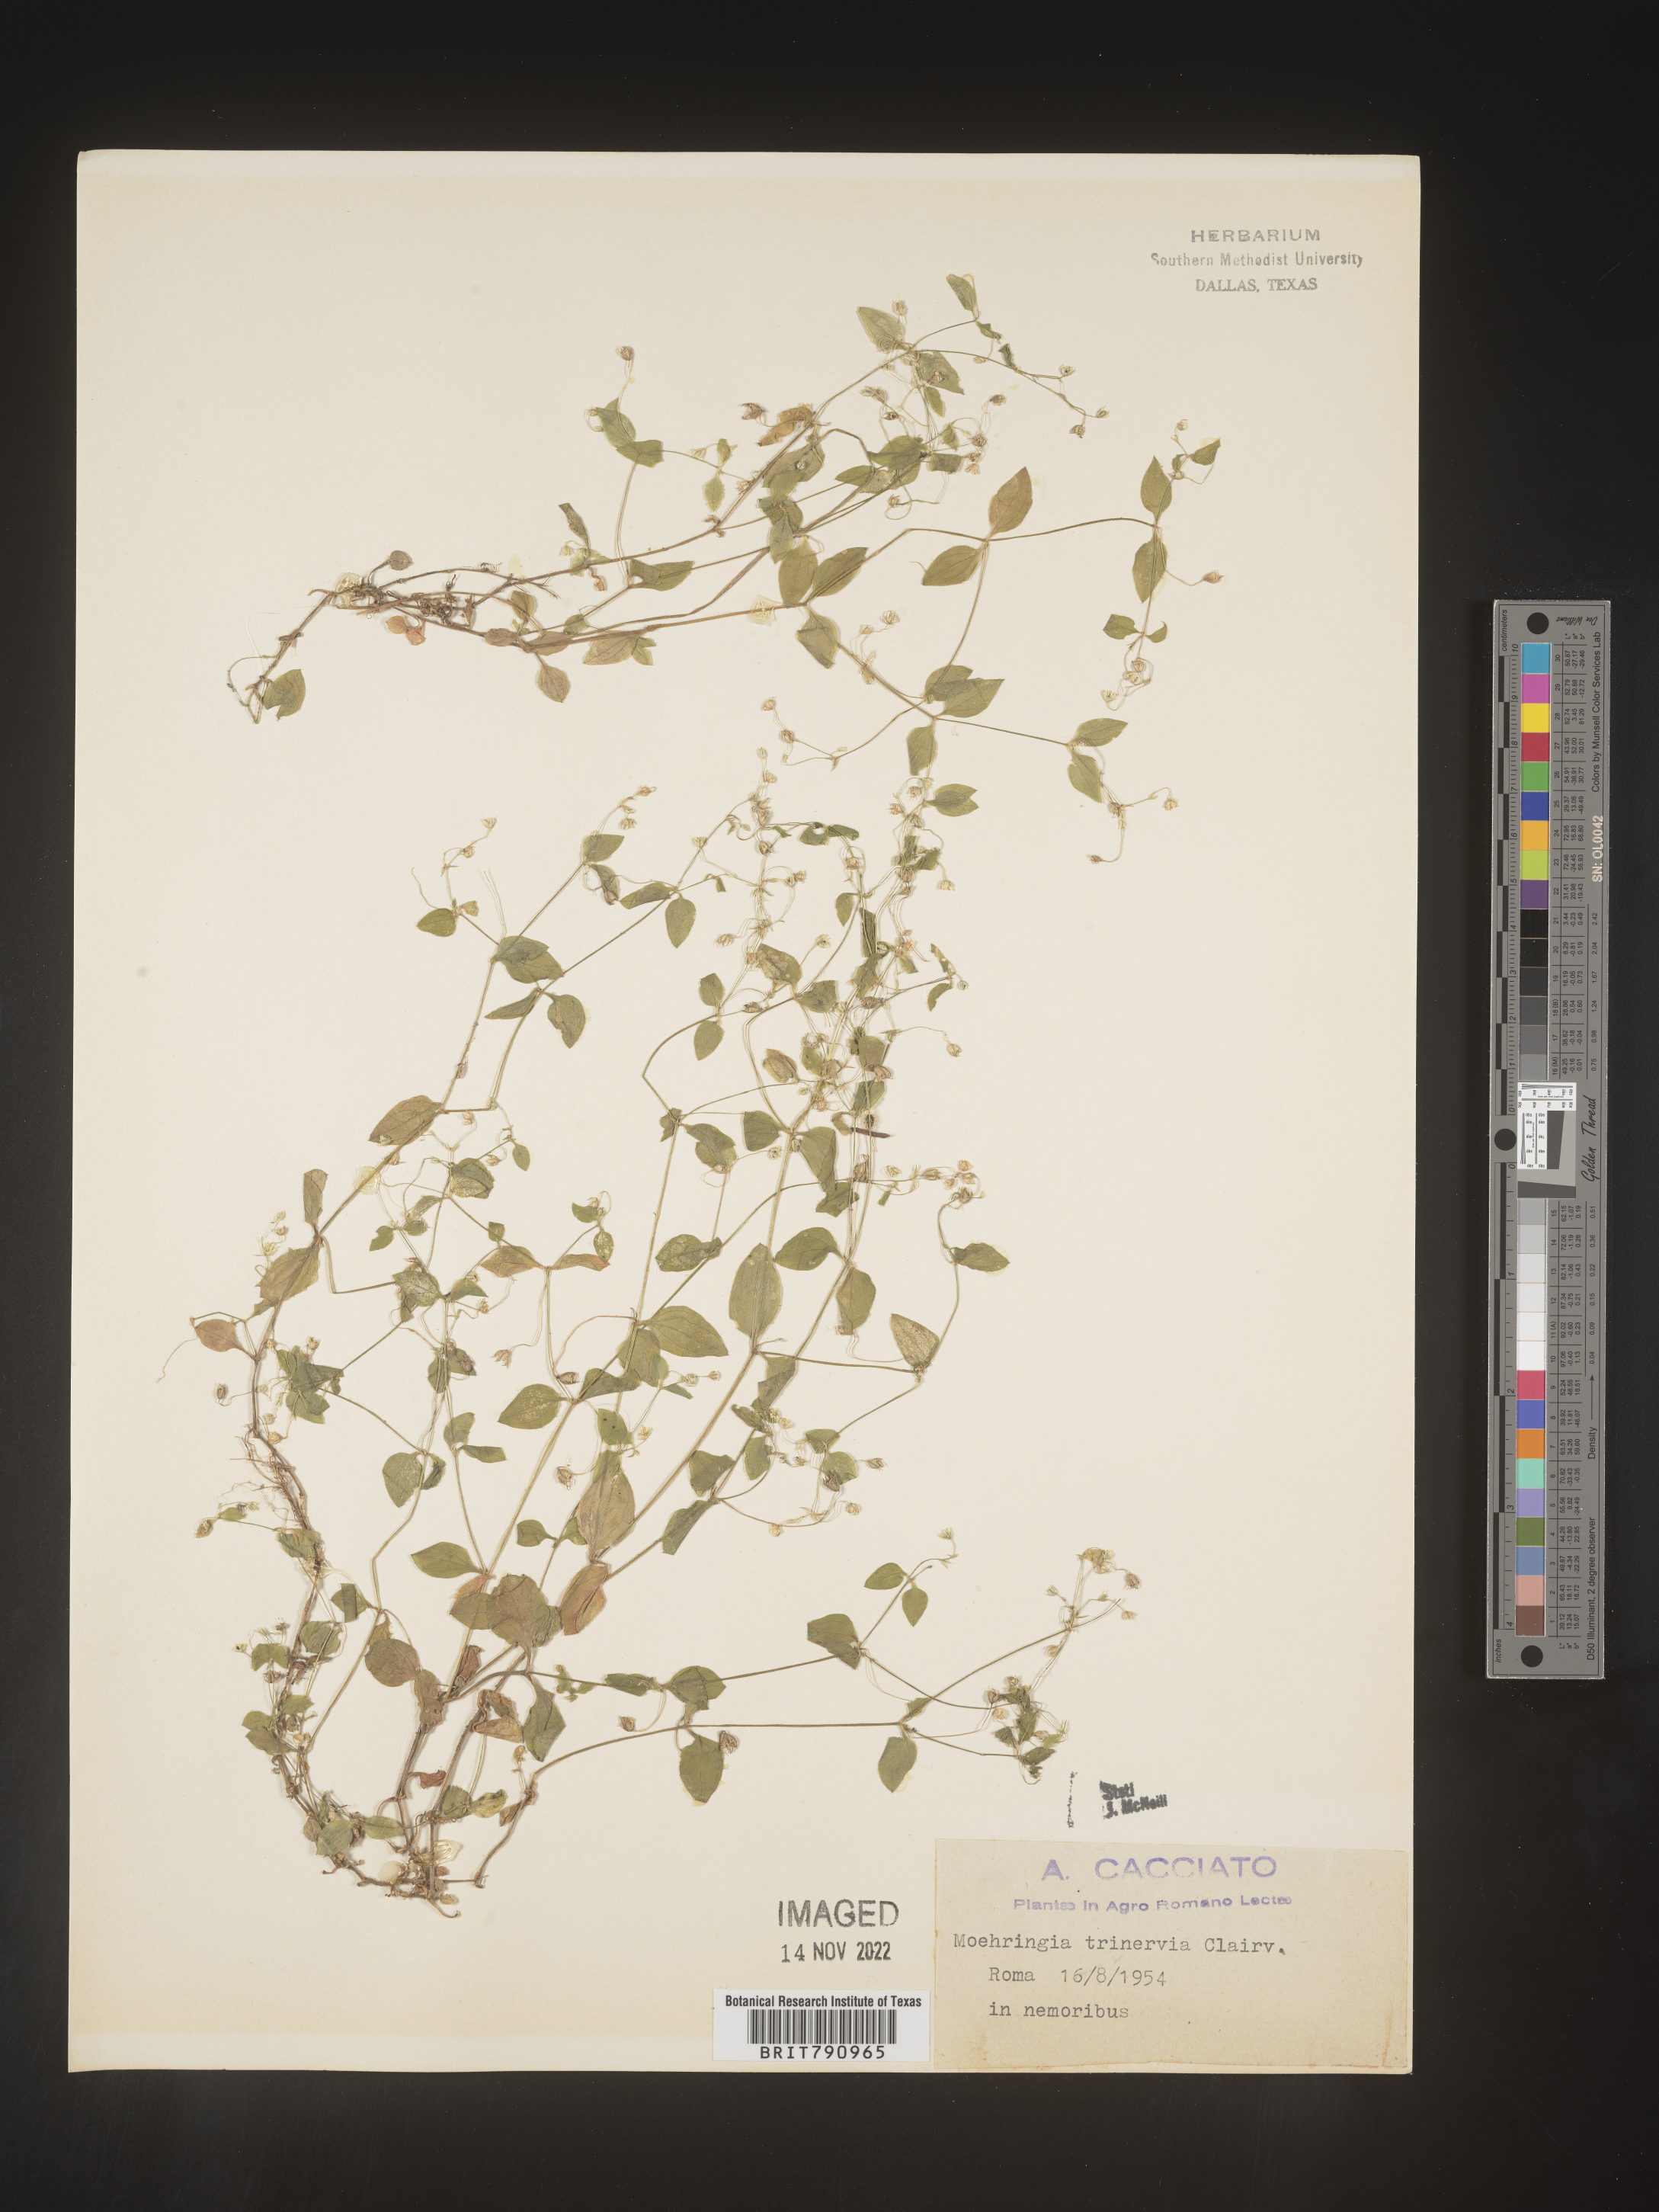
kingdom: Plantae
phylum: Tracheophyta
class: Magnoliopsida
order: Caryophyllales
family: Caryophyllaceae
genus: Moehringia
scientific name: Moehringia
